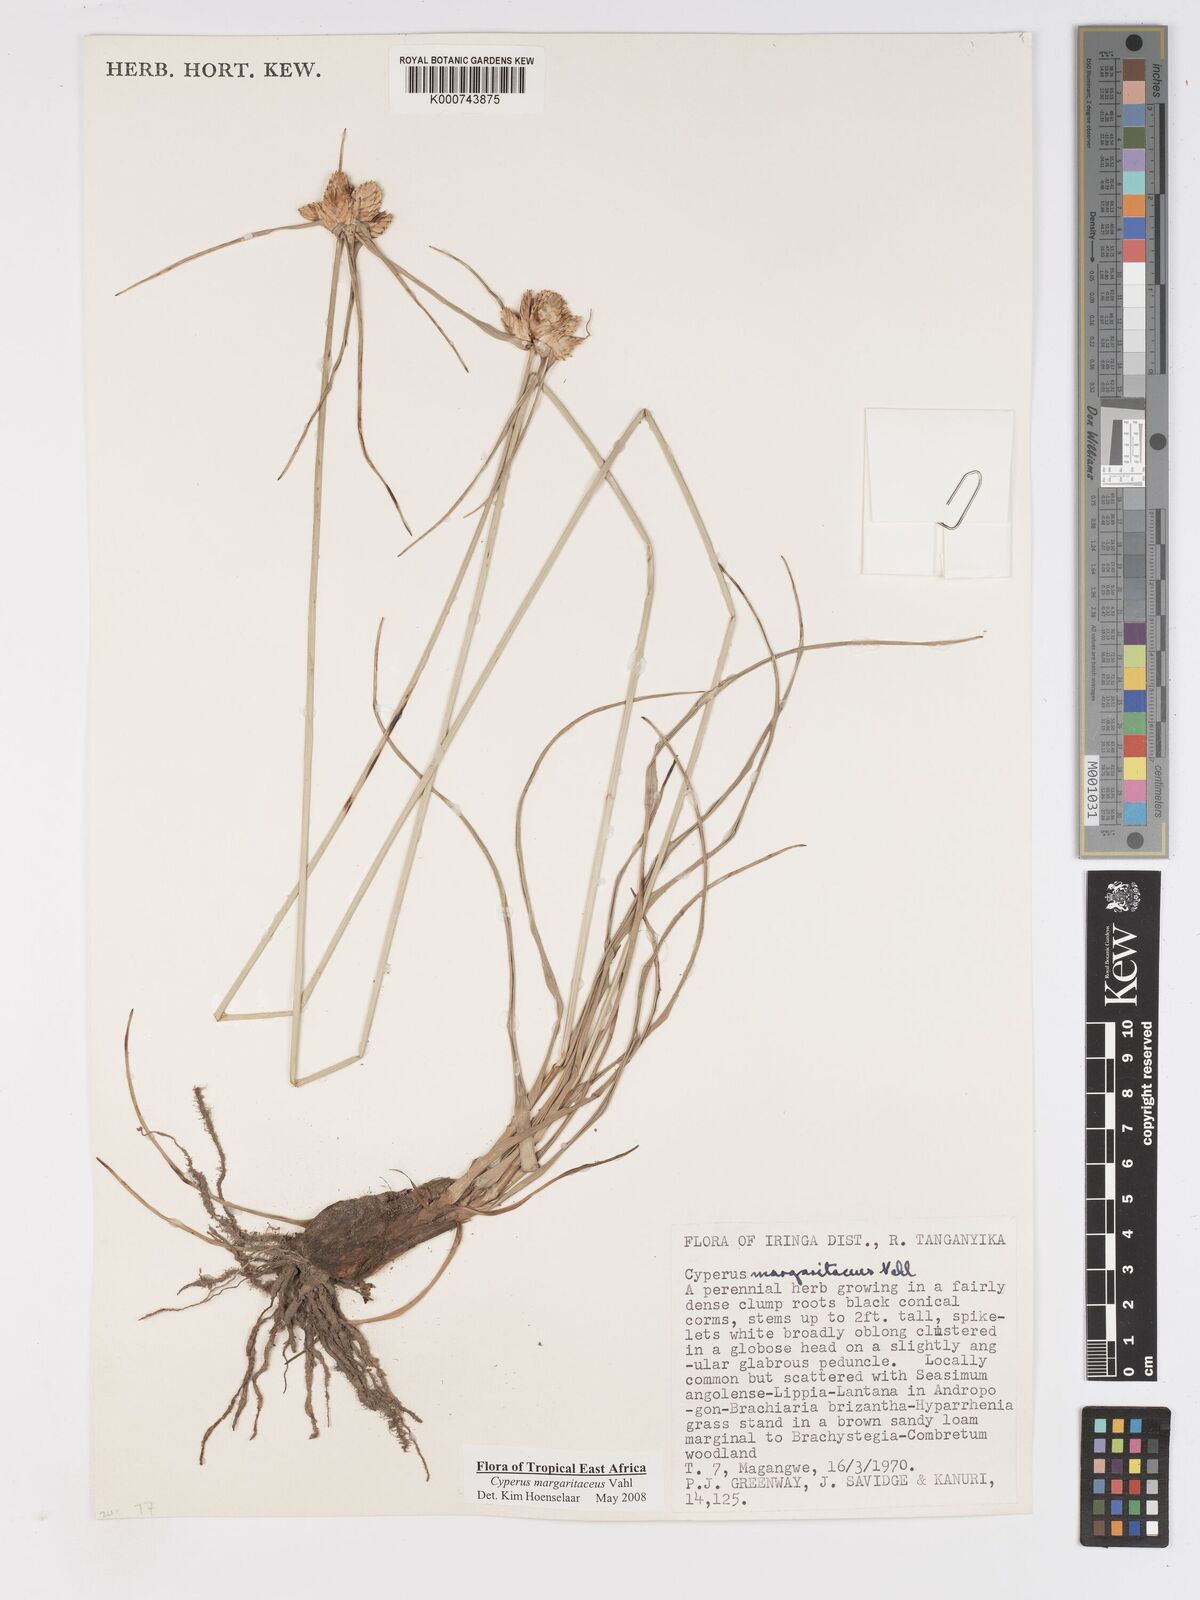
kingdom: Plantae
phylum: Tracheophyta
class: Liliopsida
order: Poales
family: Cyperaceae
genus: Cyperus
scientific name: Cyperus margaritaceus
